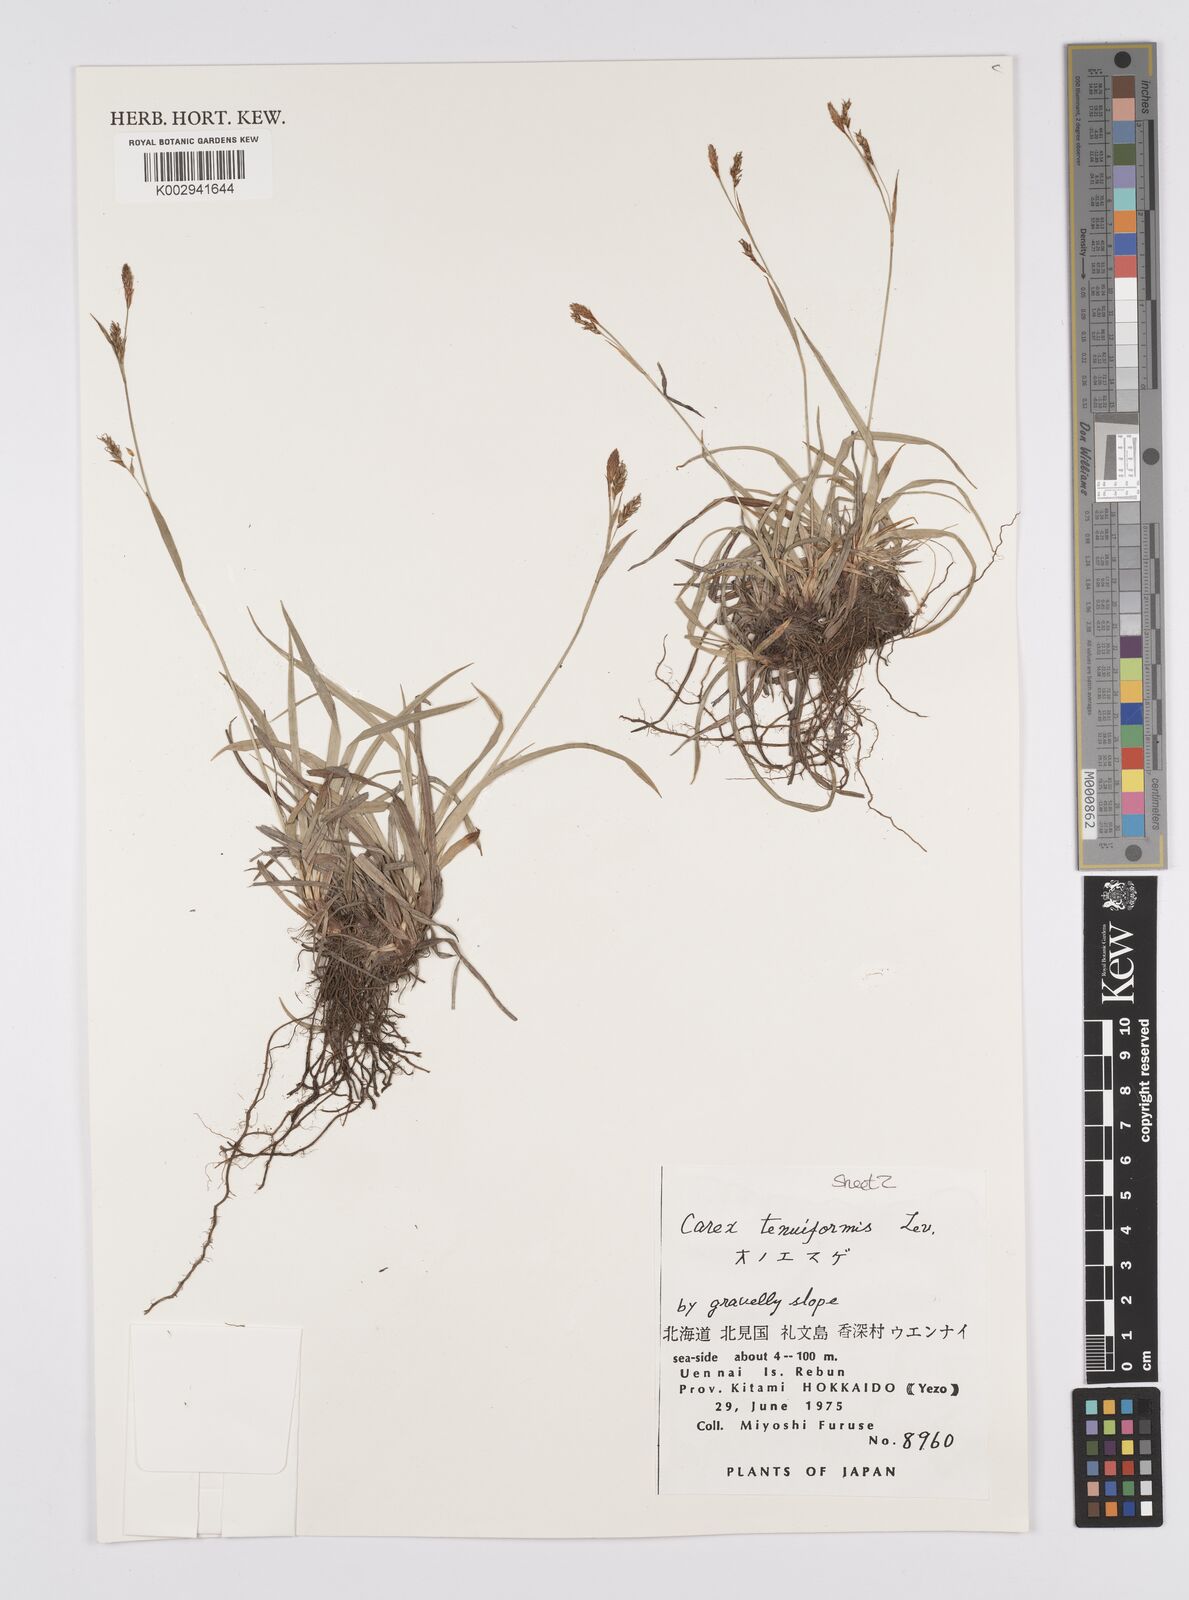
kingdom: Plantae
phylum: Tracheophyta
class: Liliopsida
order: Poales
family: Cyperaceae
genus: Carex
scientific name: Carex tenuiformis
